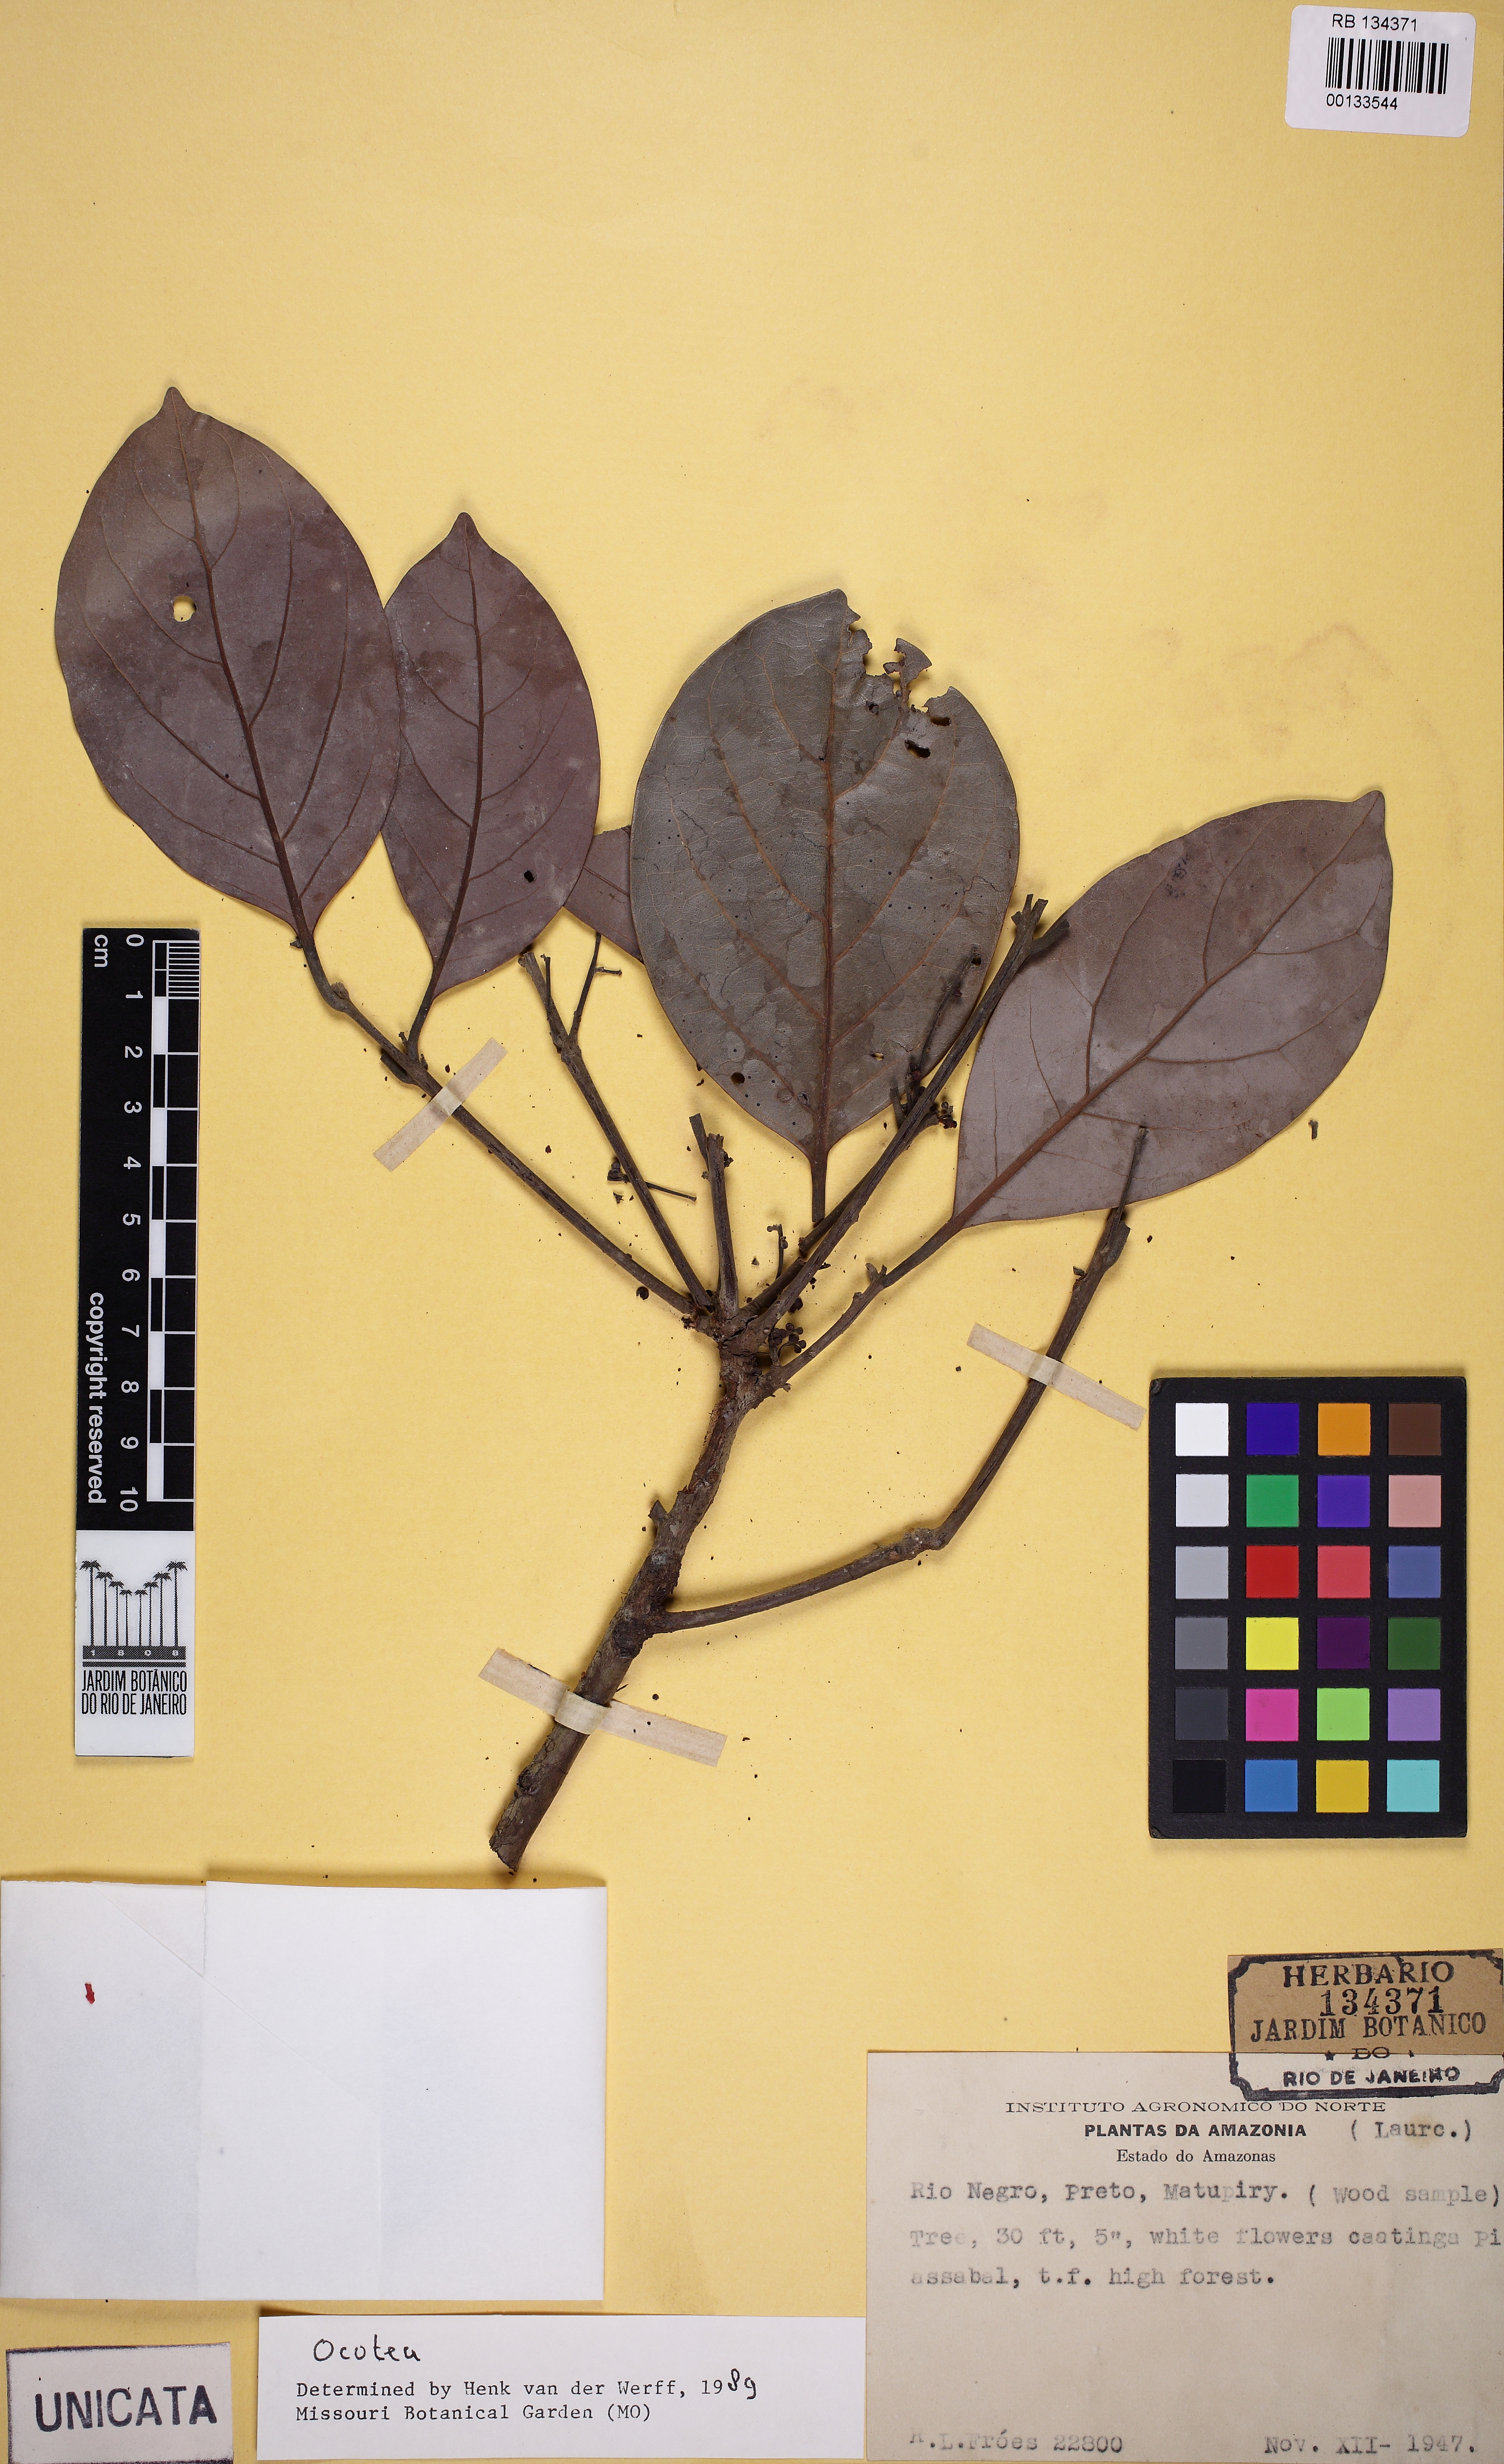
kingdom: Plantae
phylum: Tracheophyta
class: Magnoliopsida
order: Laurales
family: Lauraceae
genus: Ocotea
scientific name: Ocotea
